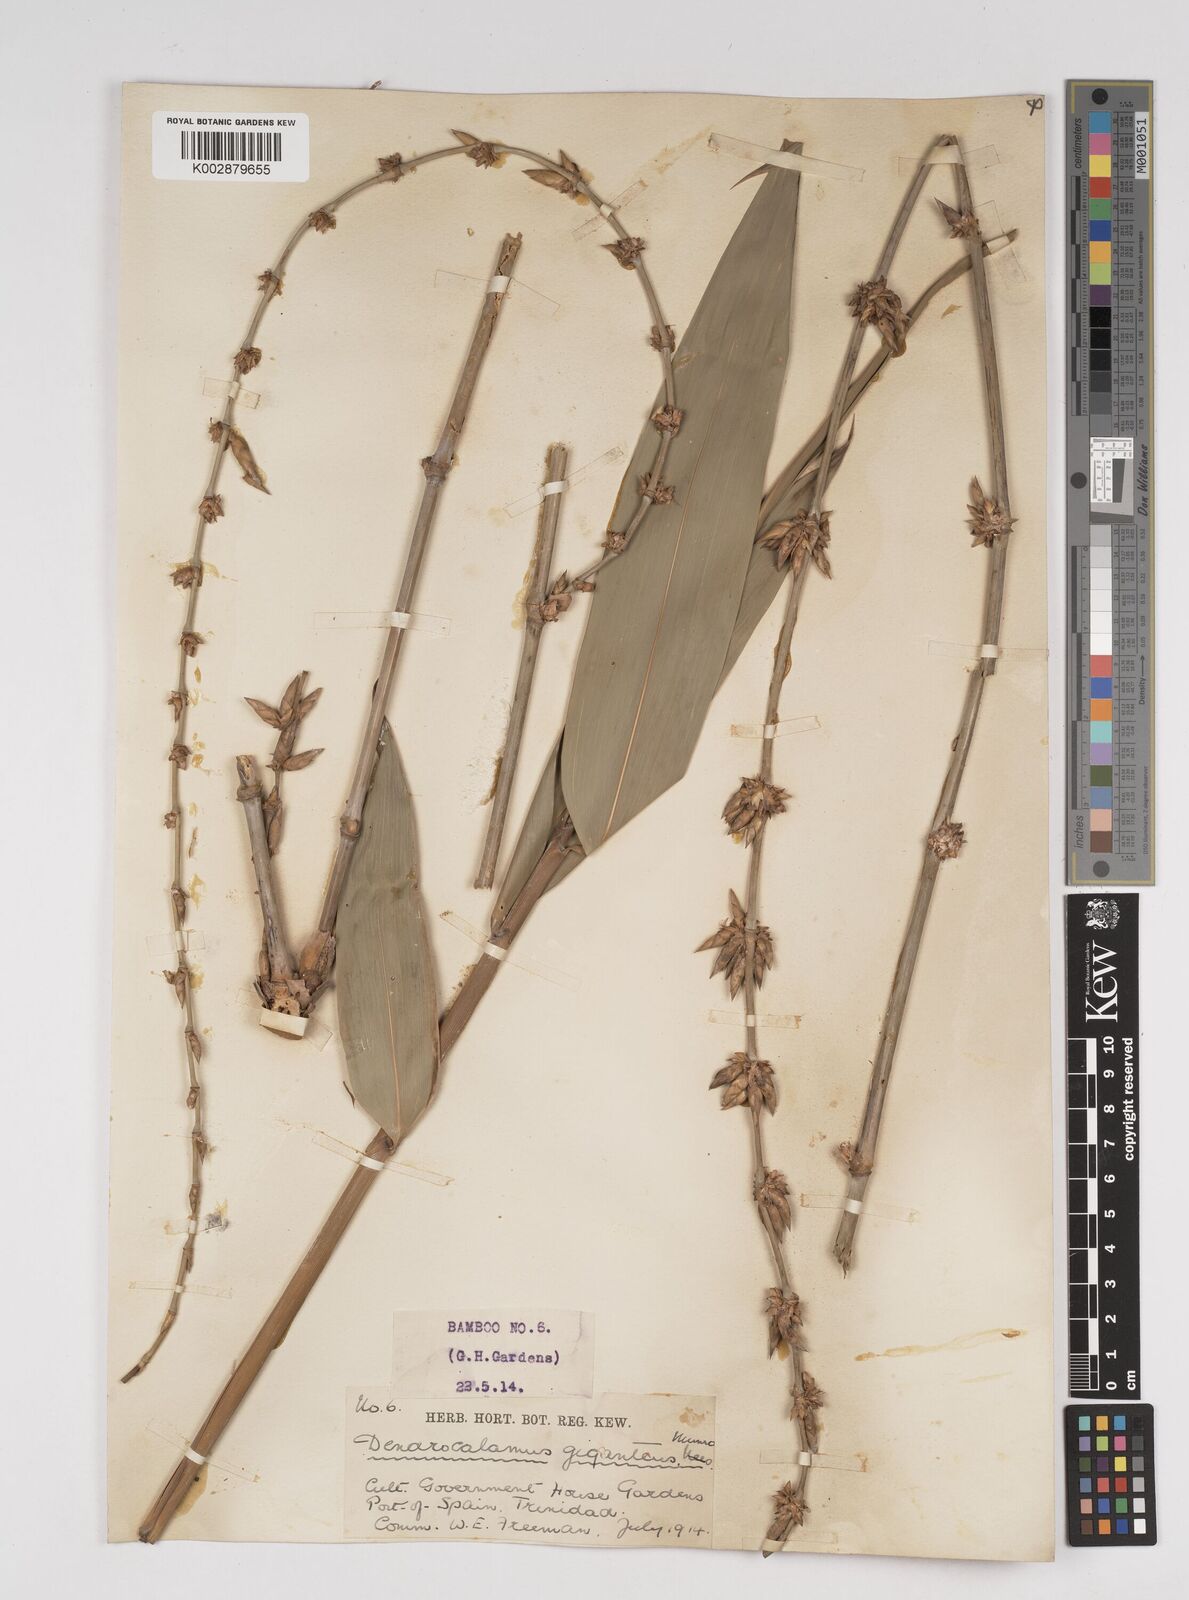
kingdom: Plantae
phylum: Tracheophyta
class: Liliopsida
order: Poales
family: Poaceae
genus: Dendrocalamus
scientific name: Dendrocalamus giganteus
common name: Giant bamboo
